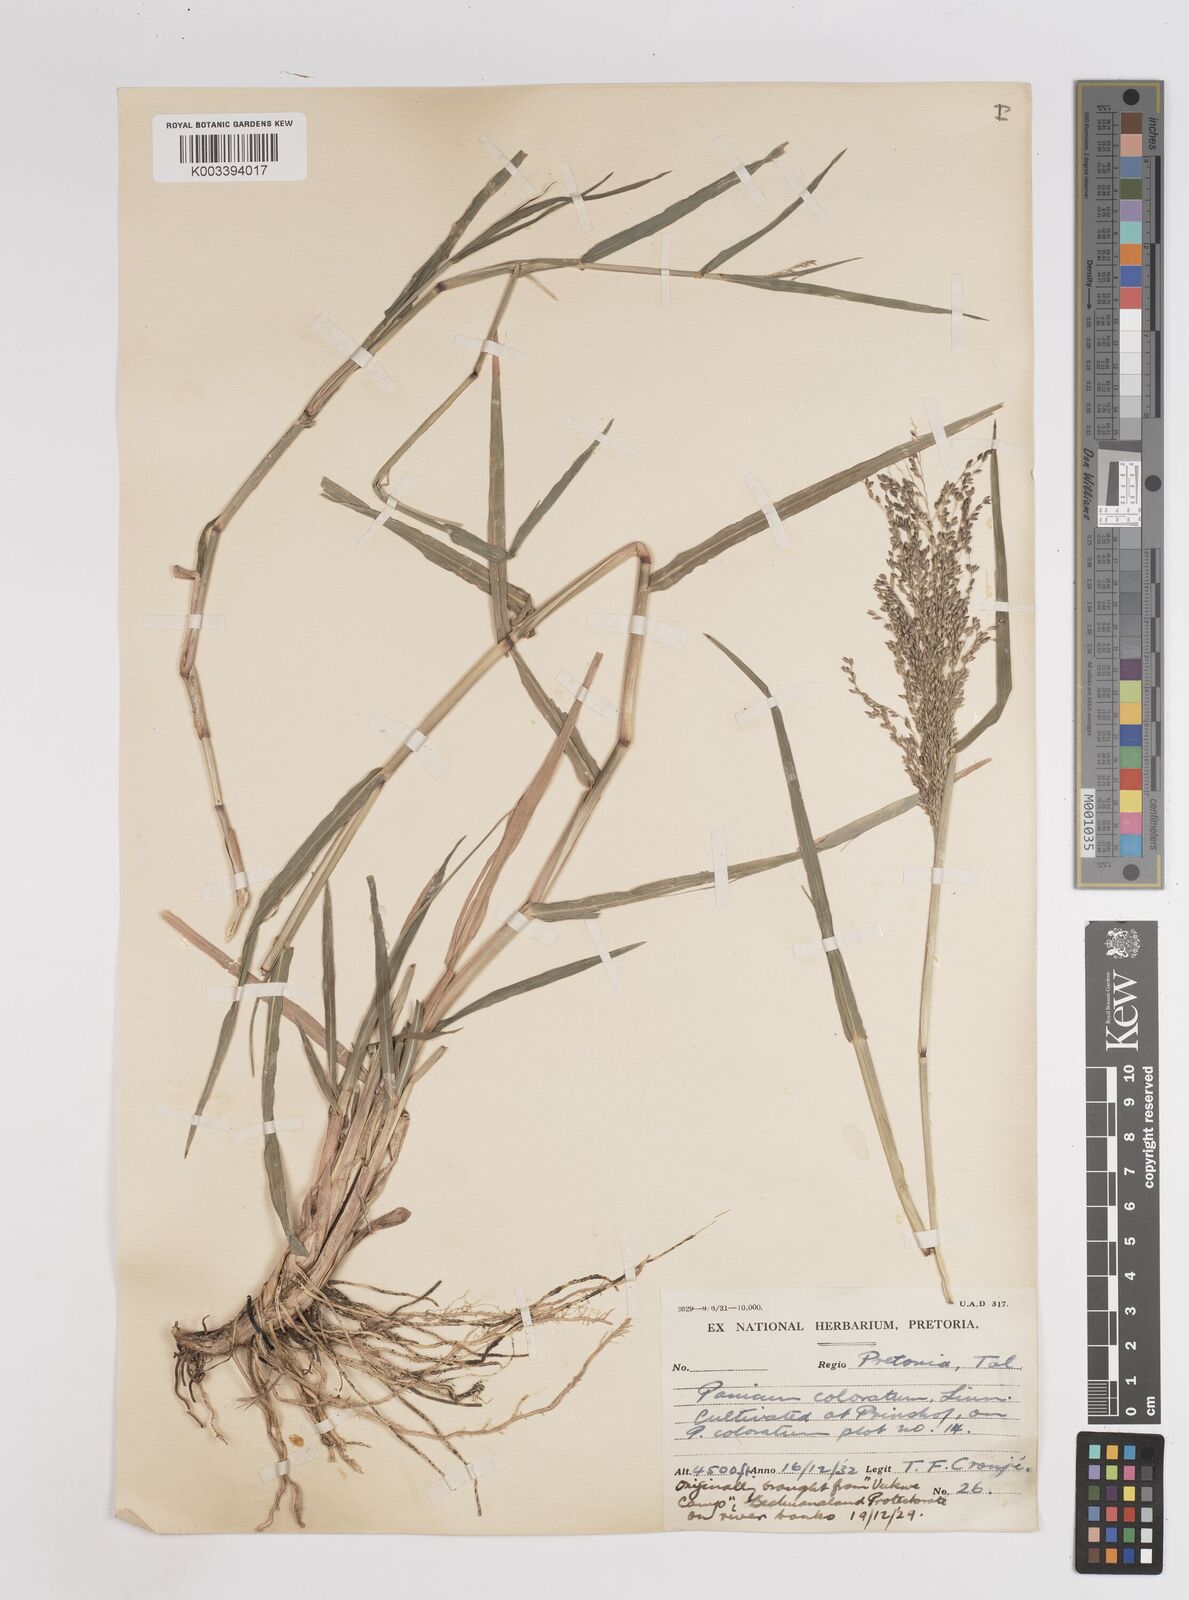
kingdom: Plantae
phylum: Tracheophyta
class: Liliopsida
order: Poales
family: Poaceae
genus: Panicum
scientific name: Panicum coloratum
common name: Kleingrass
